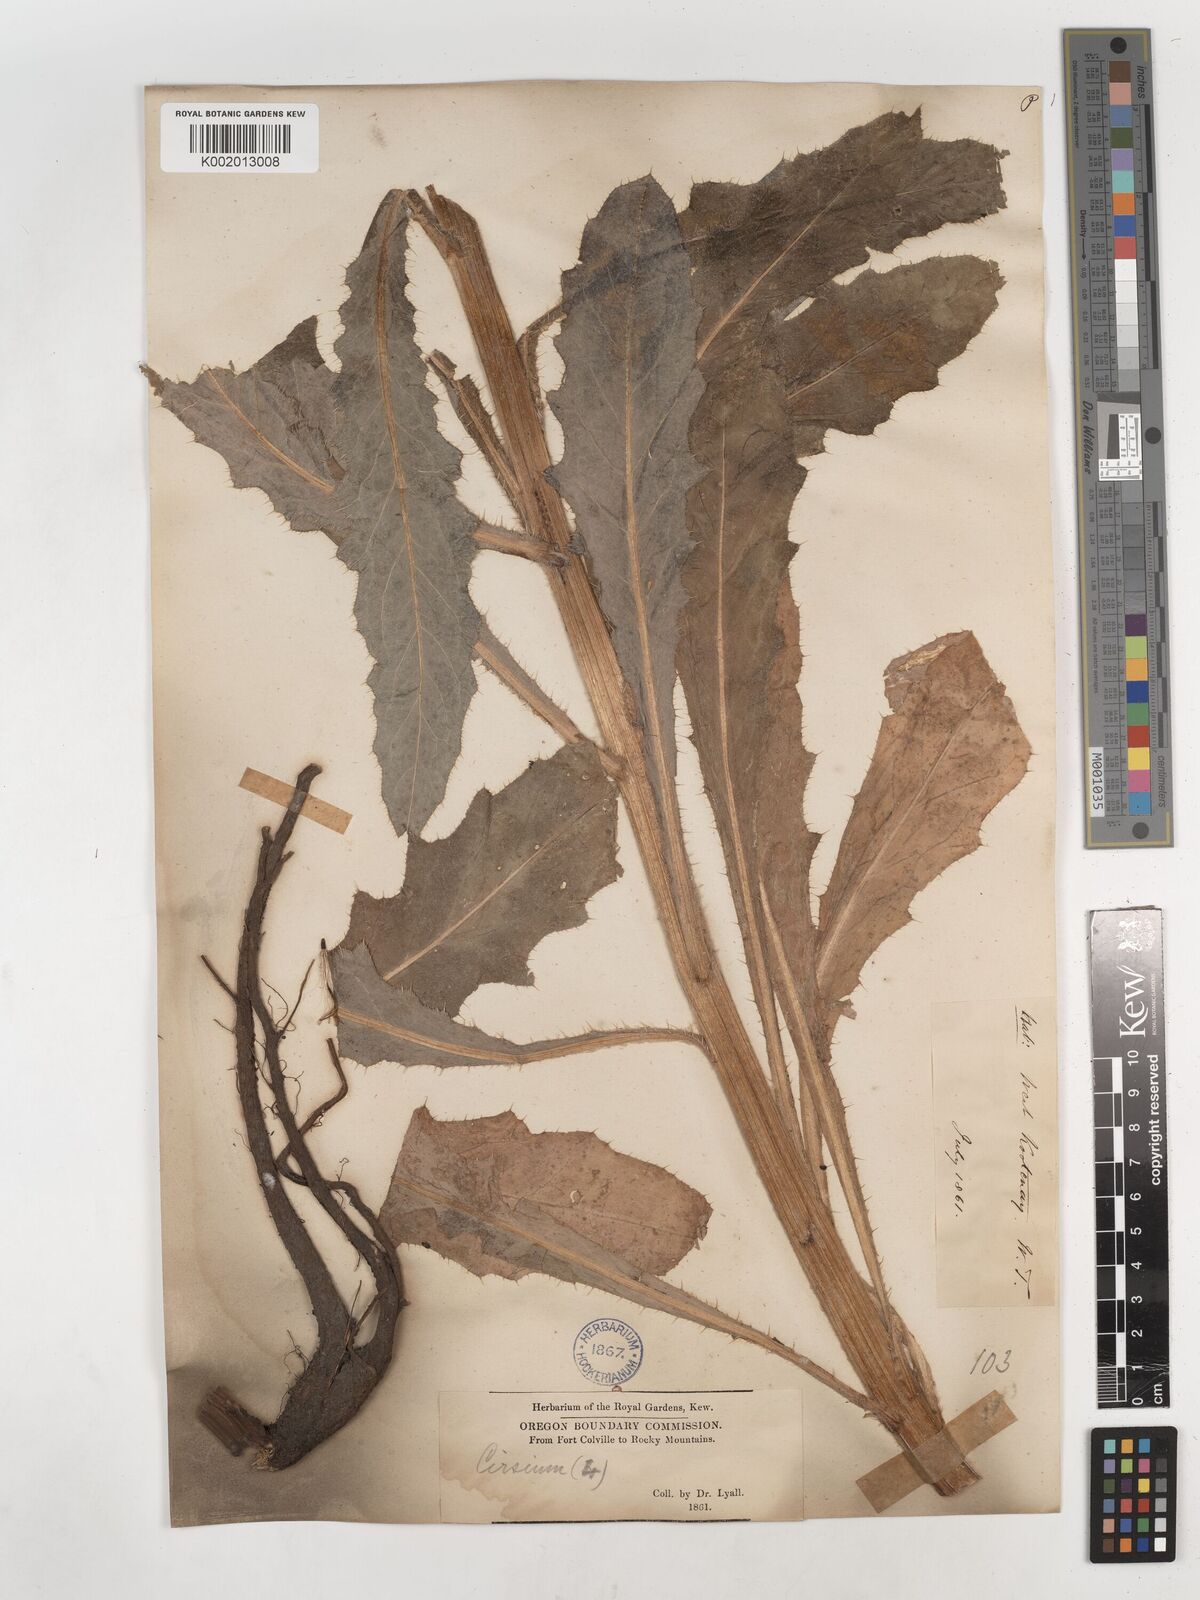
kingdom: Plantae
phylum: Tracheophyta
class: Magnoliopsida
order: Asterales
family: Asteraceae
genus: Cirsium
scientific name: Cirsium drummondii
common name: Drummond's thistle
